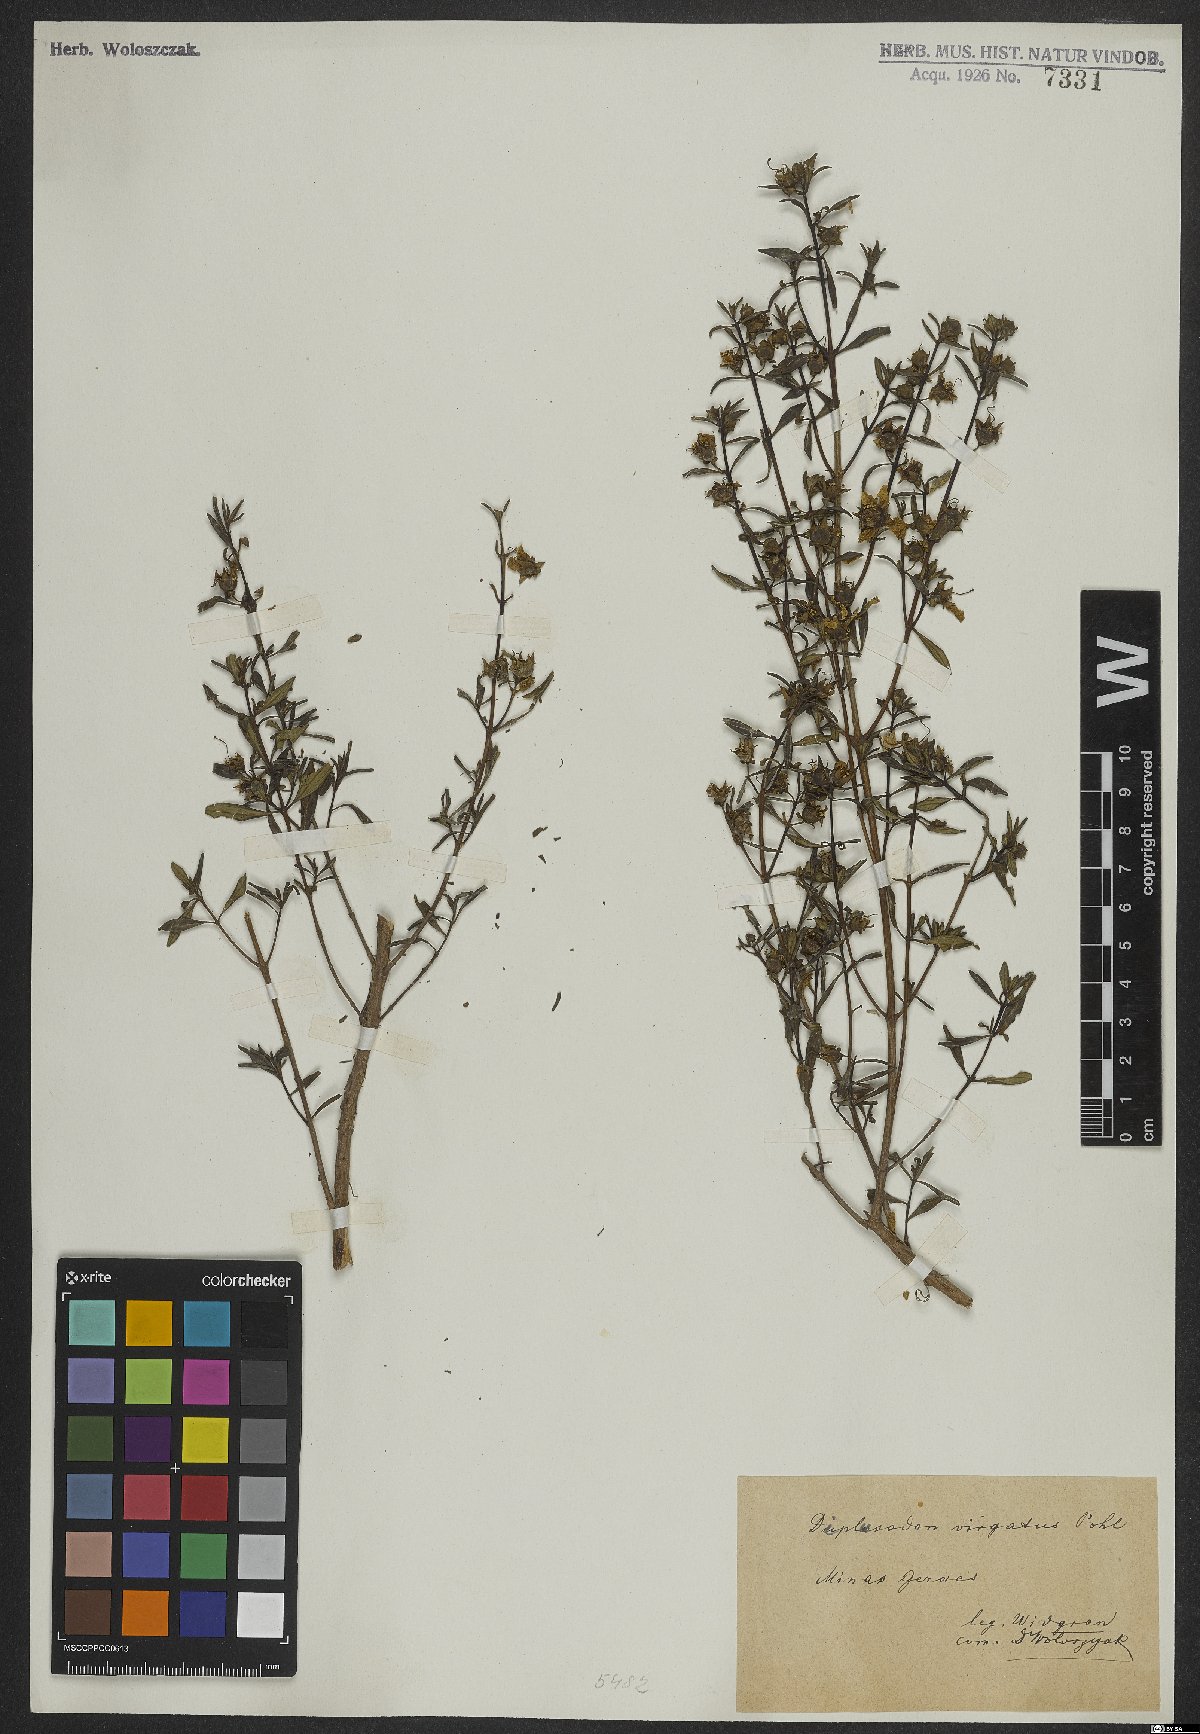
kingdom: Plantae
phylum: Tracheophyta
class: Magnoliopsida
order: Myrtales
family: Lythraceae
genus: Diplusodon
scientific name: Diplusodon virgatus
